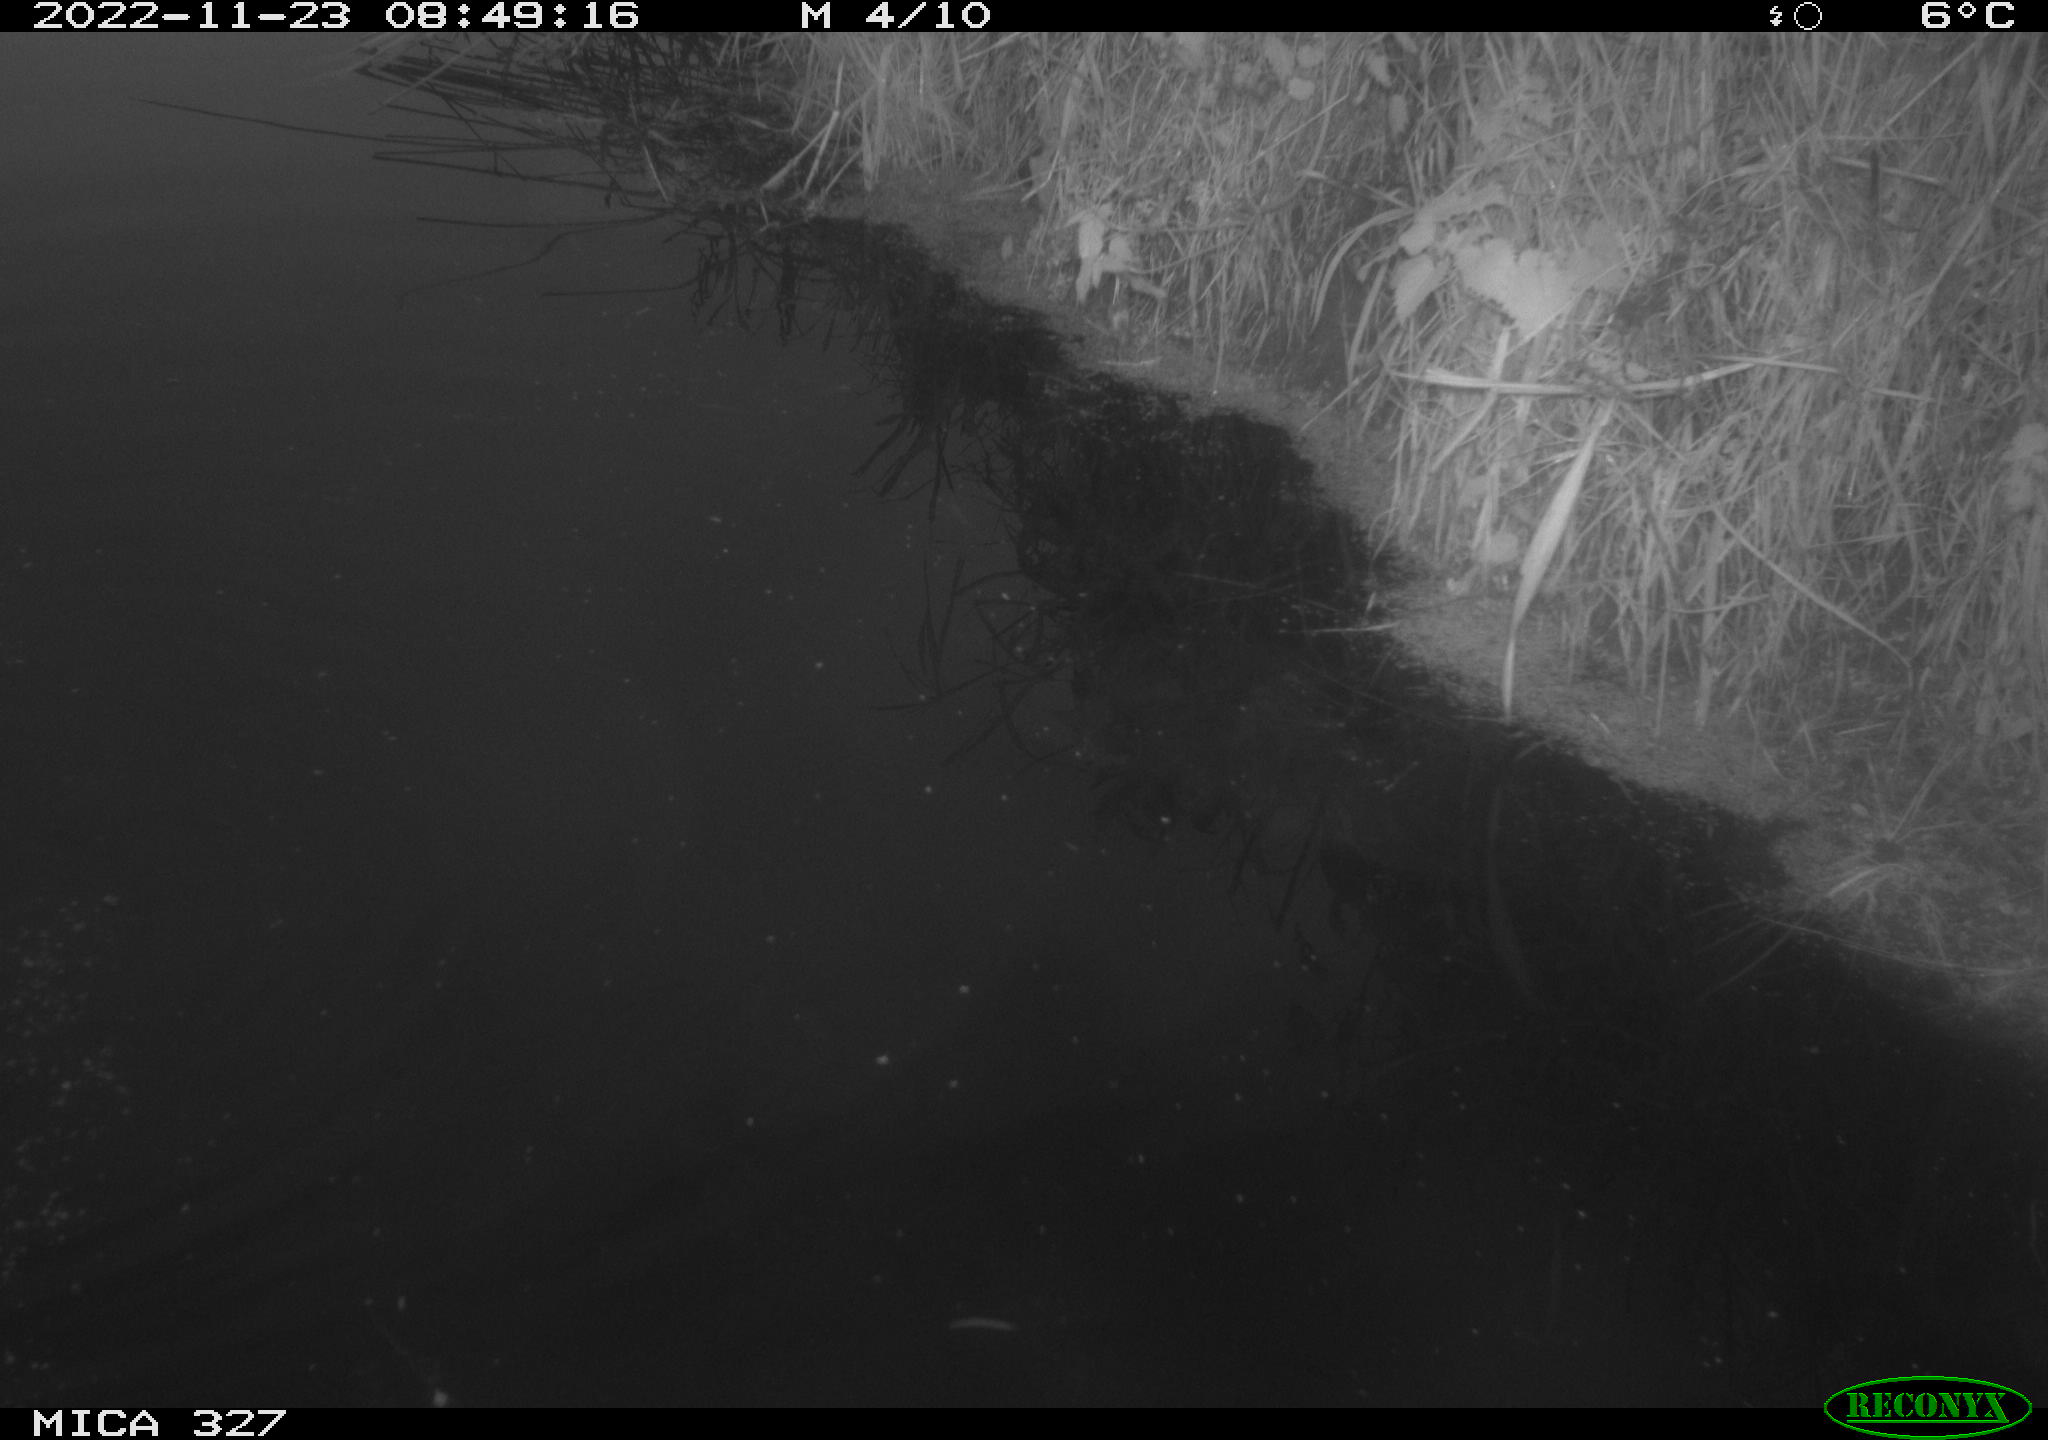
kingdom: Animalia
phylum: Chordata
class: Aves
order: Gruiformes
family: Rallidae
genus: Gallinula
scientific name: Gallinula chloropus
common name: Common moorhen
